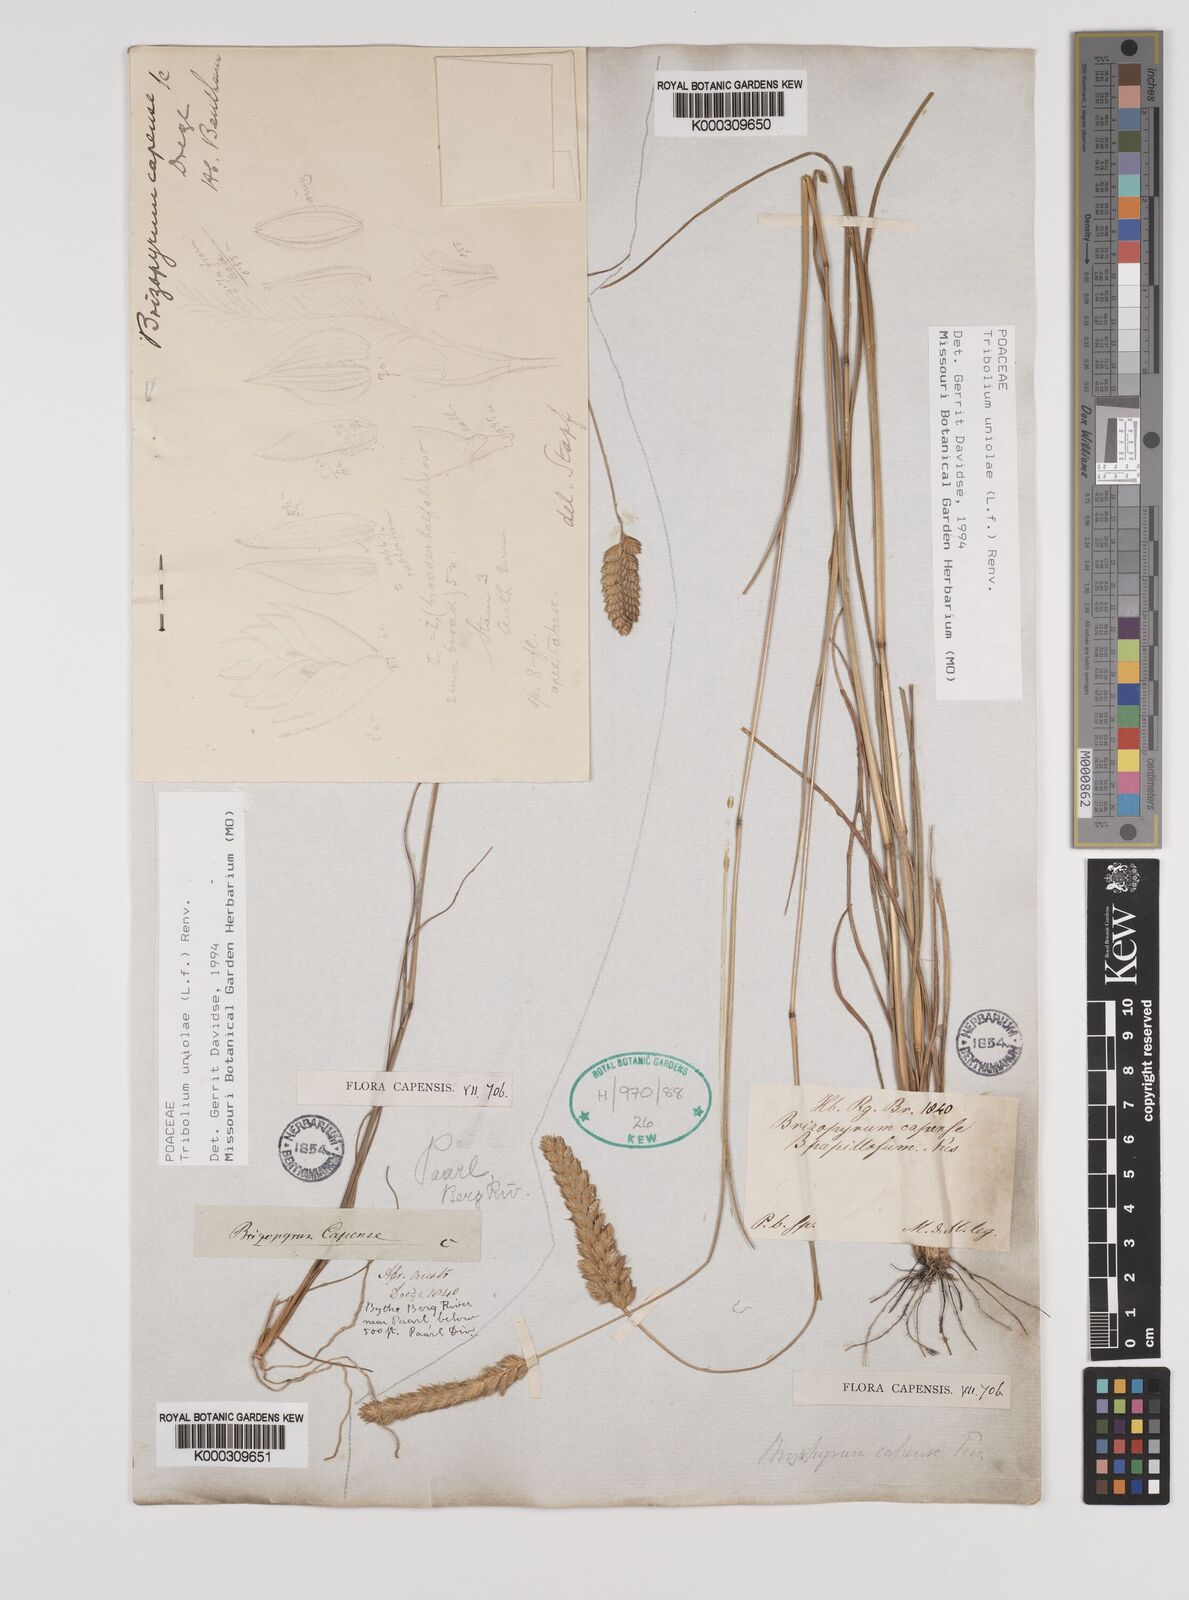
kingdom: Plantae
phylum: Tracheophyta
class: Liliopsida
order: Poales
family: Poaceae
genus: Tribolium
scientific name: Tribolium uniolae
